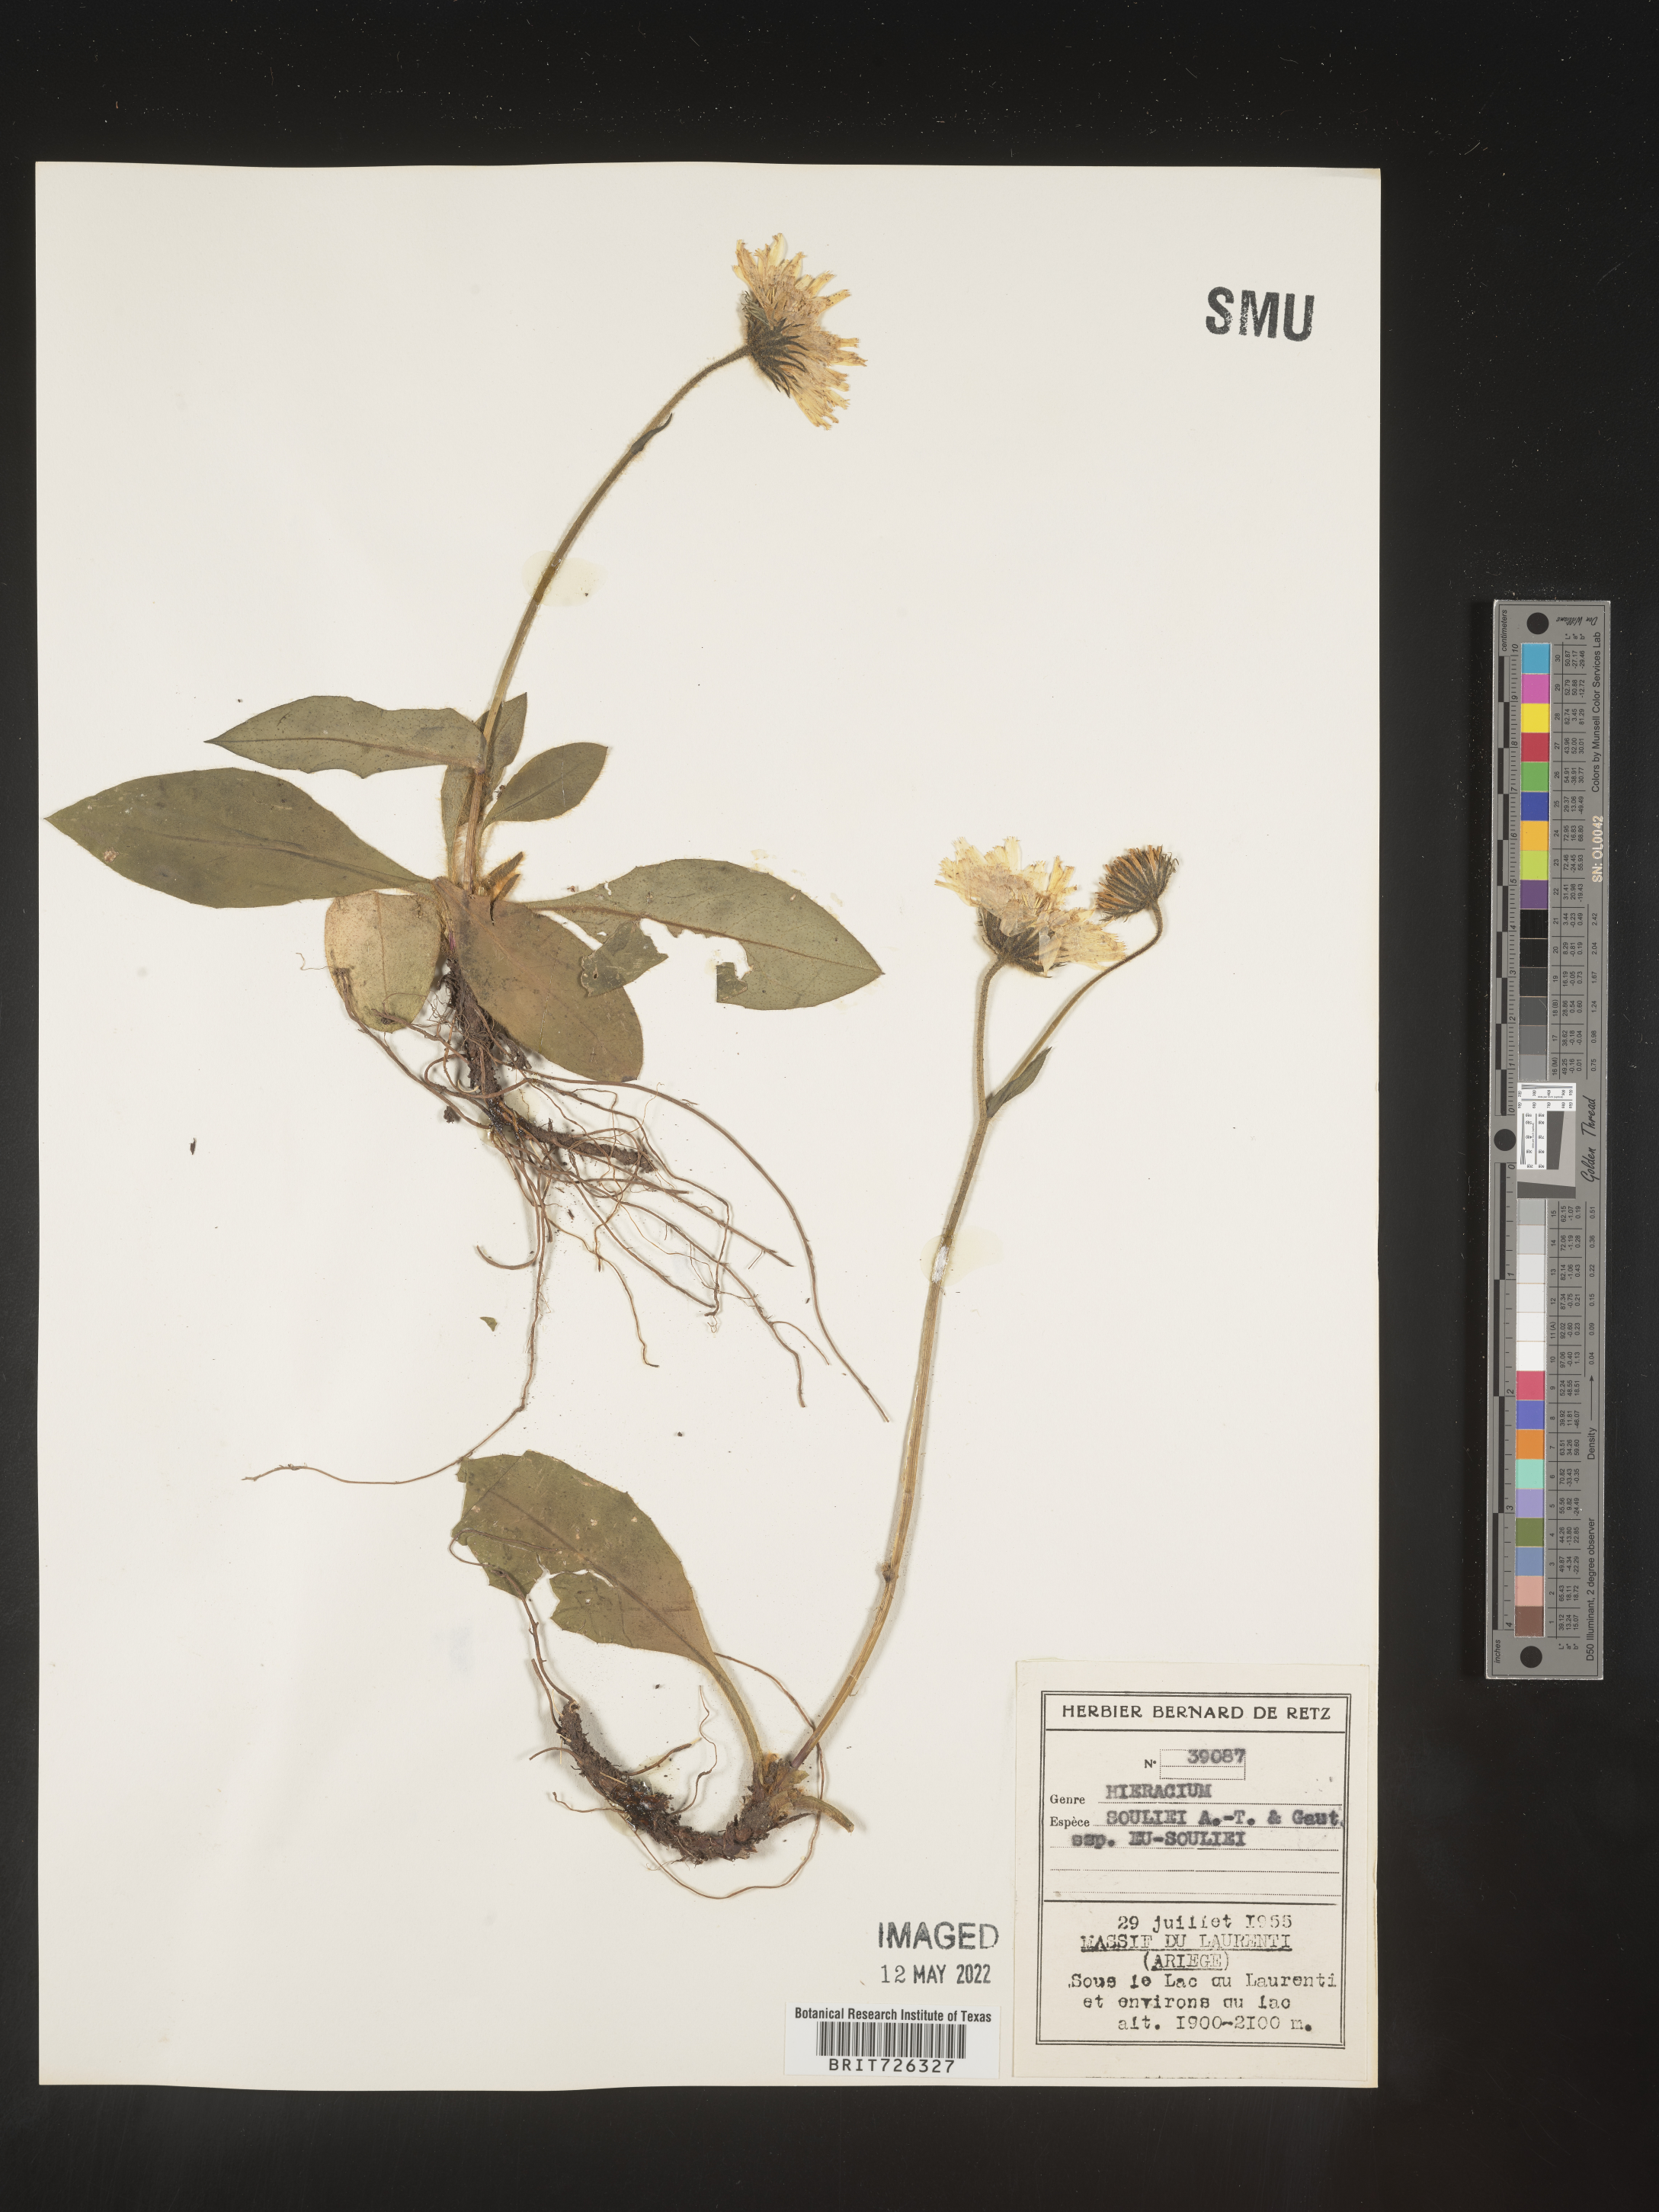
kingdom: Plantae
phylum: Tracheophyta
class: Magnoliopsida
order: Asterales
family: Asteraceae
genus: Hieracium
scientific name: Hieracium
